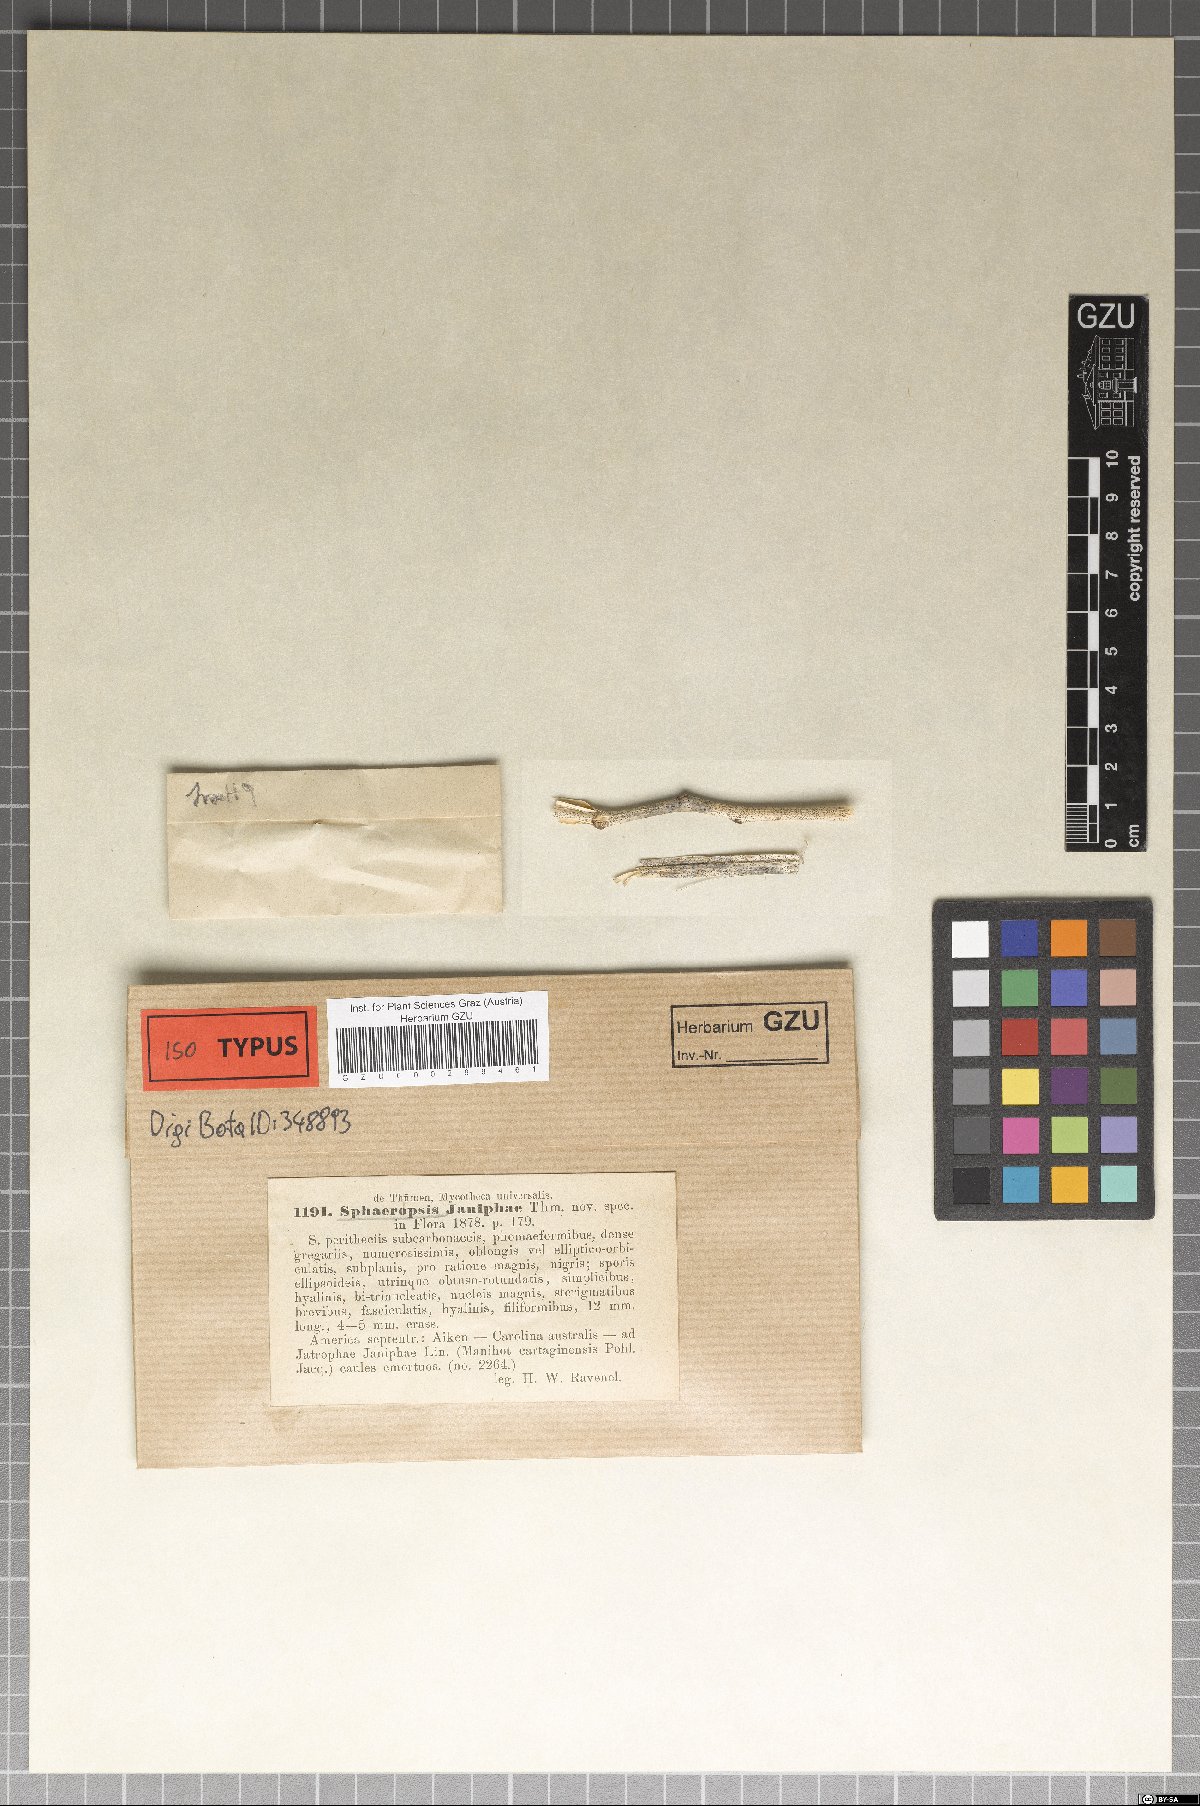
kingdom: Animalia
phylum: Arthropoda
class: Branchiopoda
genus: Sphaeropsis
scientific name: Sphaeropsis
